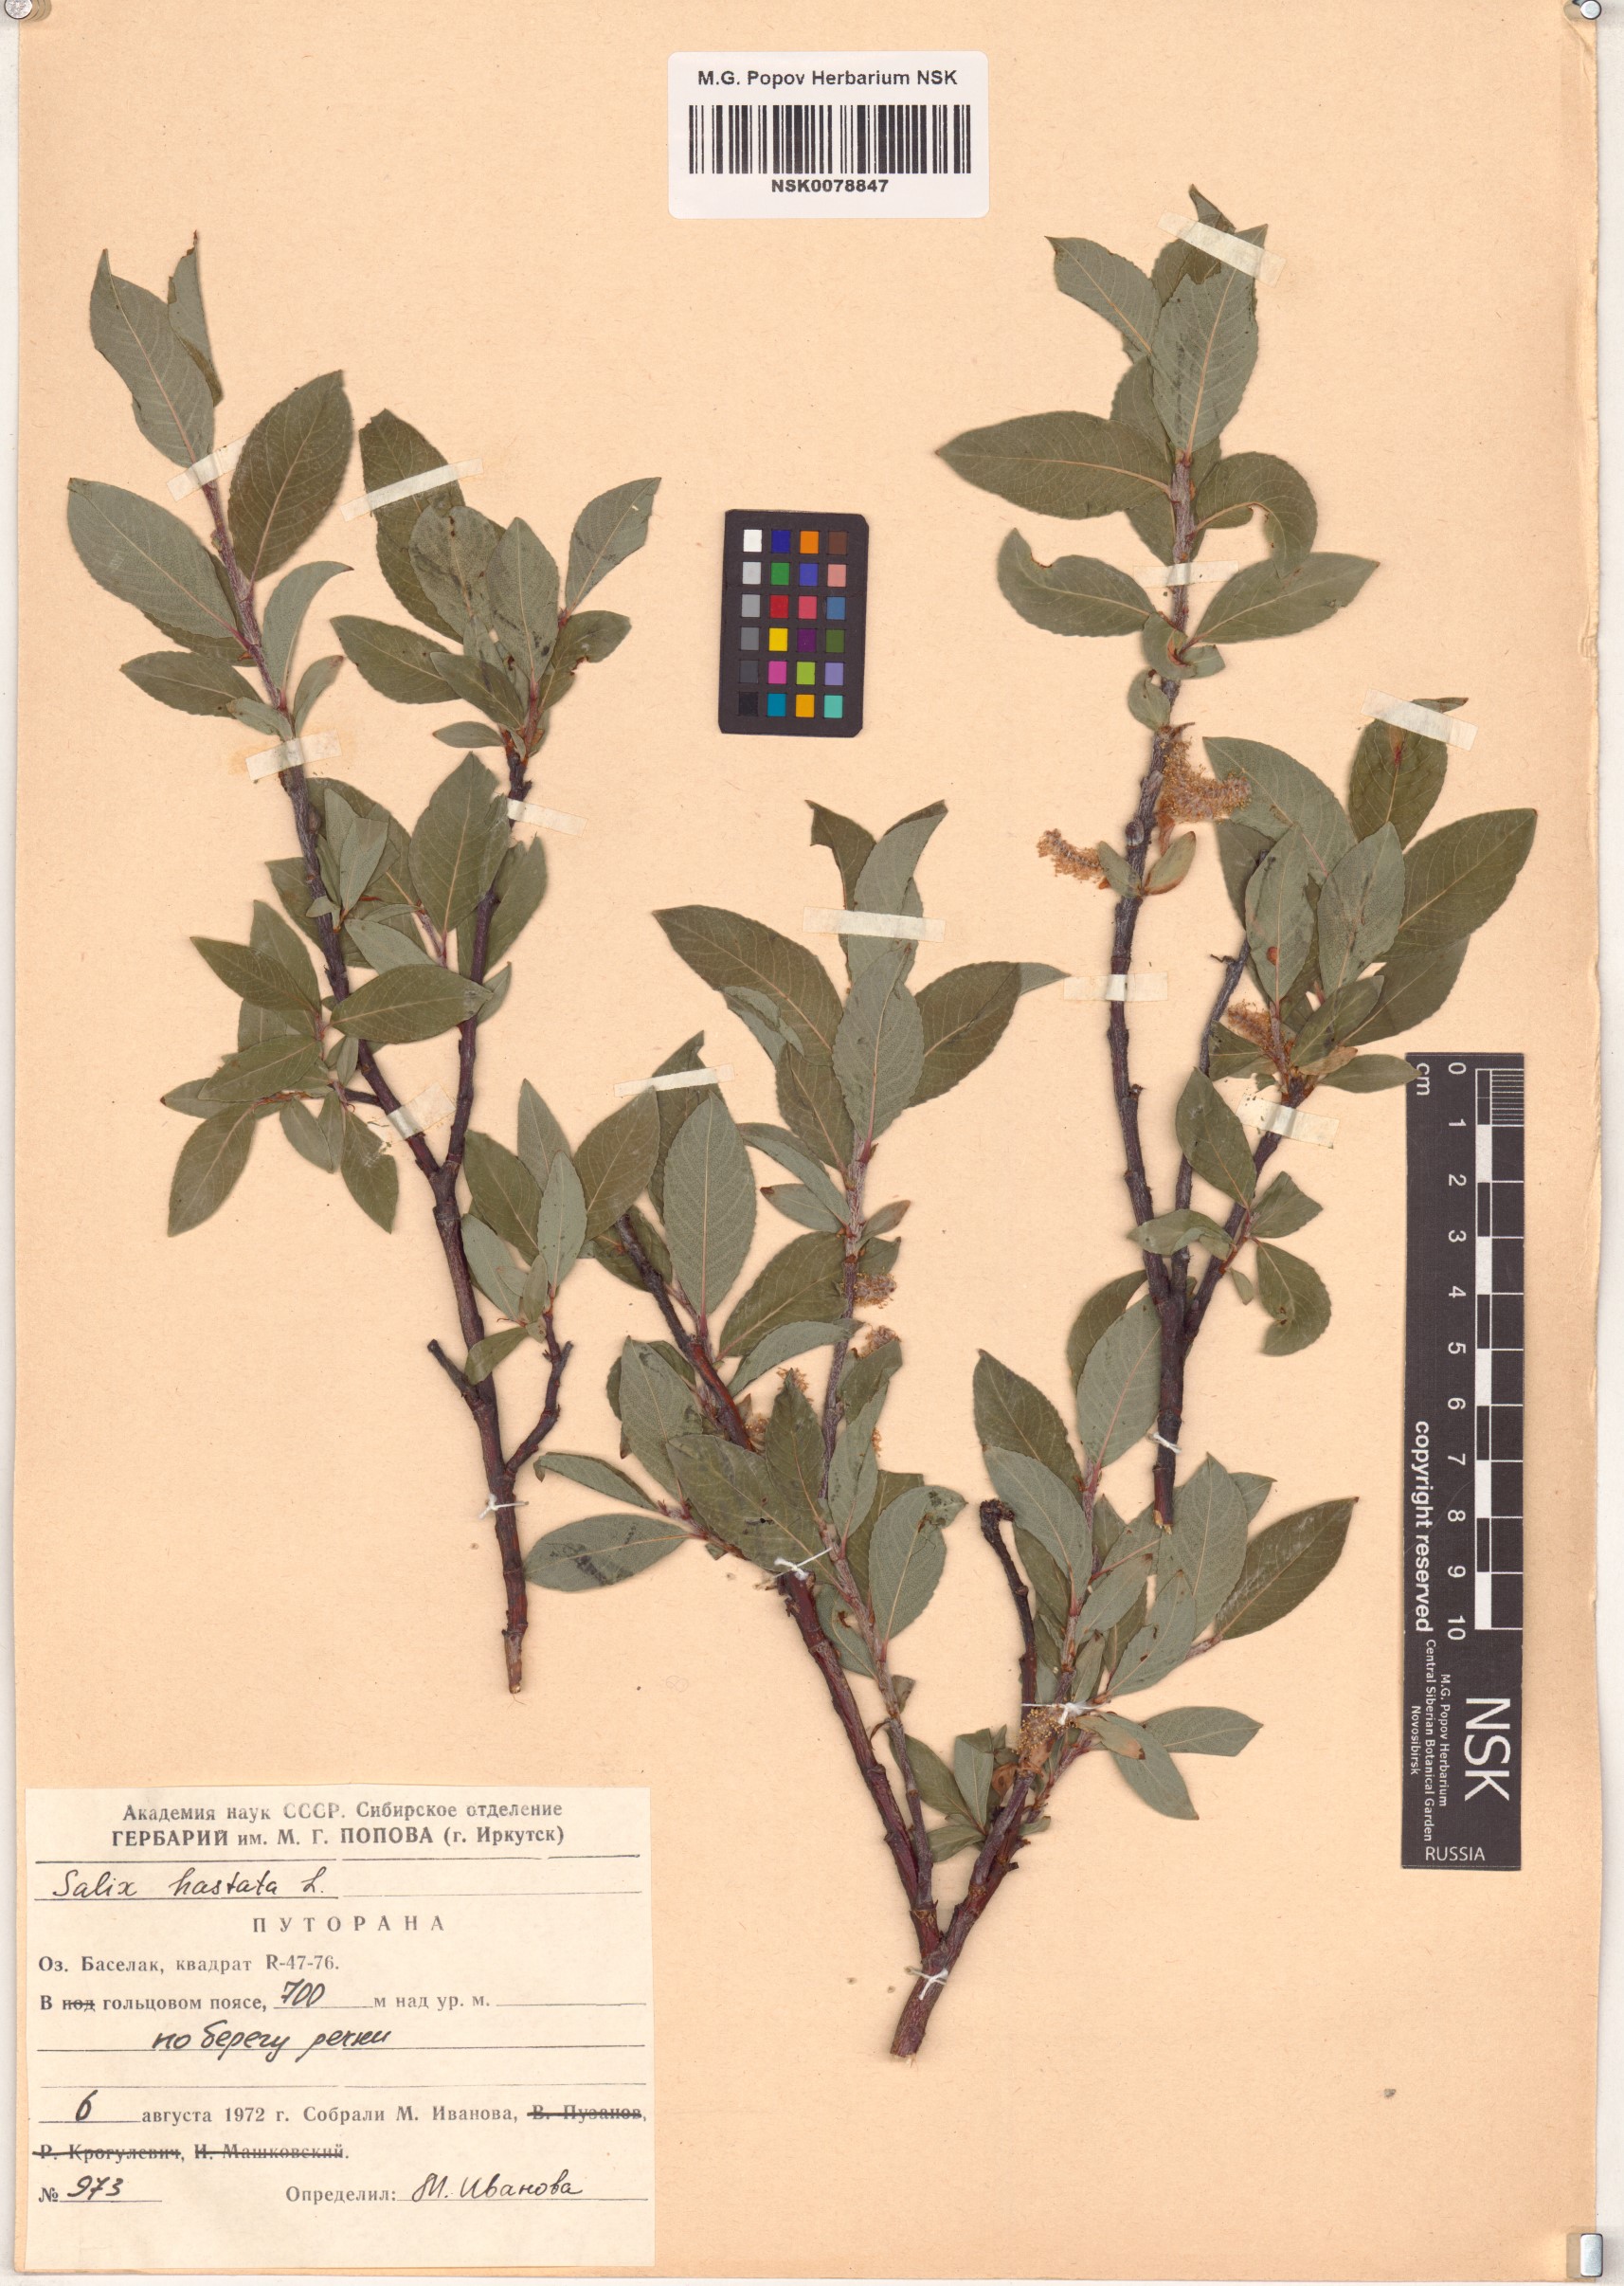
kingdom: Plantae
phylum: Tracheophyta
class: Magnoliopsida
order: Malpighiales
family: Salicaceae
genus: Salix
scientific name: Salix hastata
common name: Halberd willow
